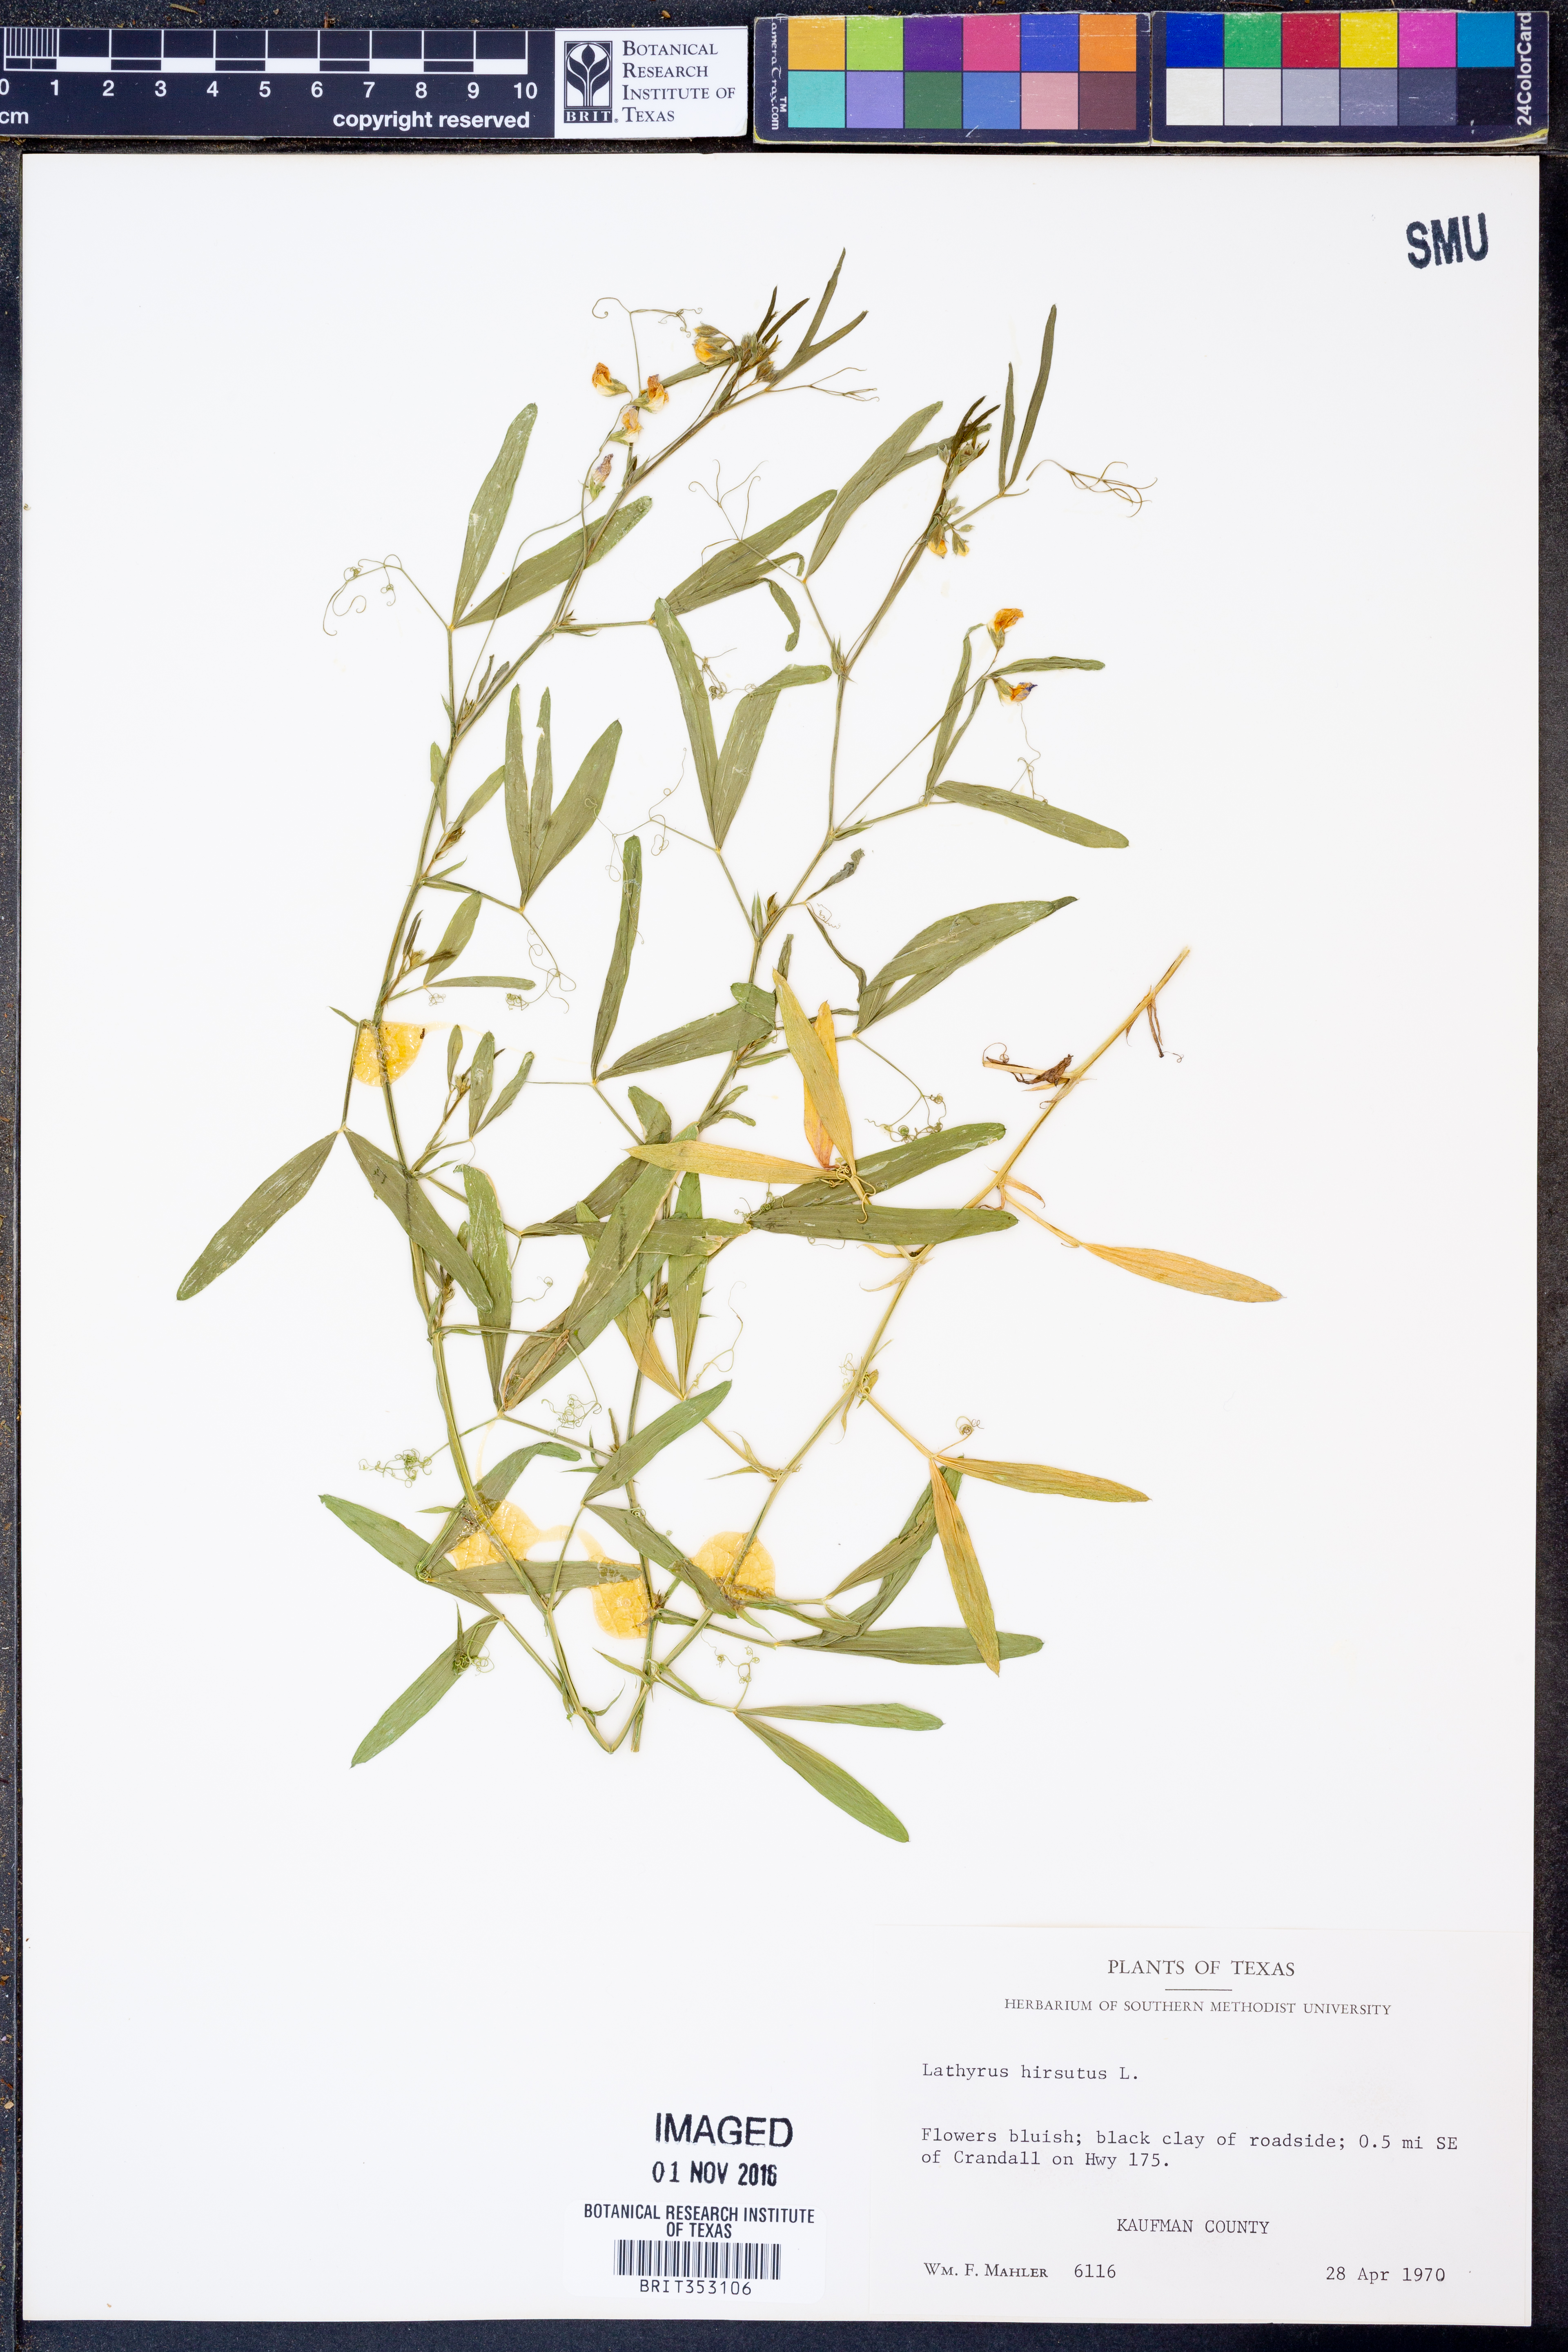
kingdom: Plantae
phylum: Tracheophyta
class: Magnoliopsida
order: Fabales
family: Fabaceae
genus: Lathyrus
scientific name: Lathyrus hirsutus
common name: Hairy vetchling
